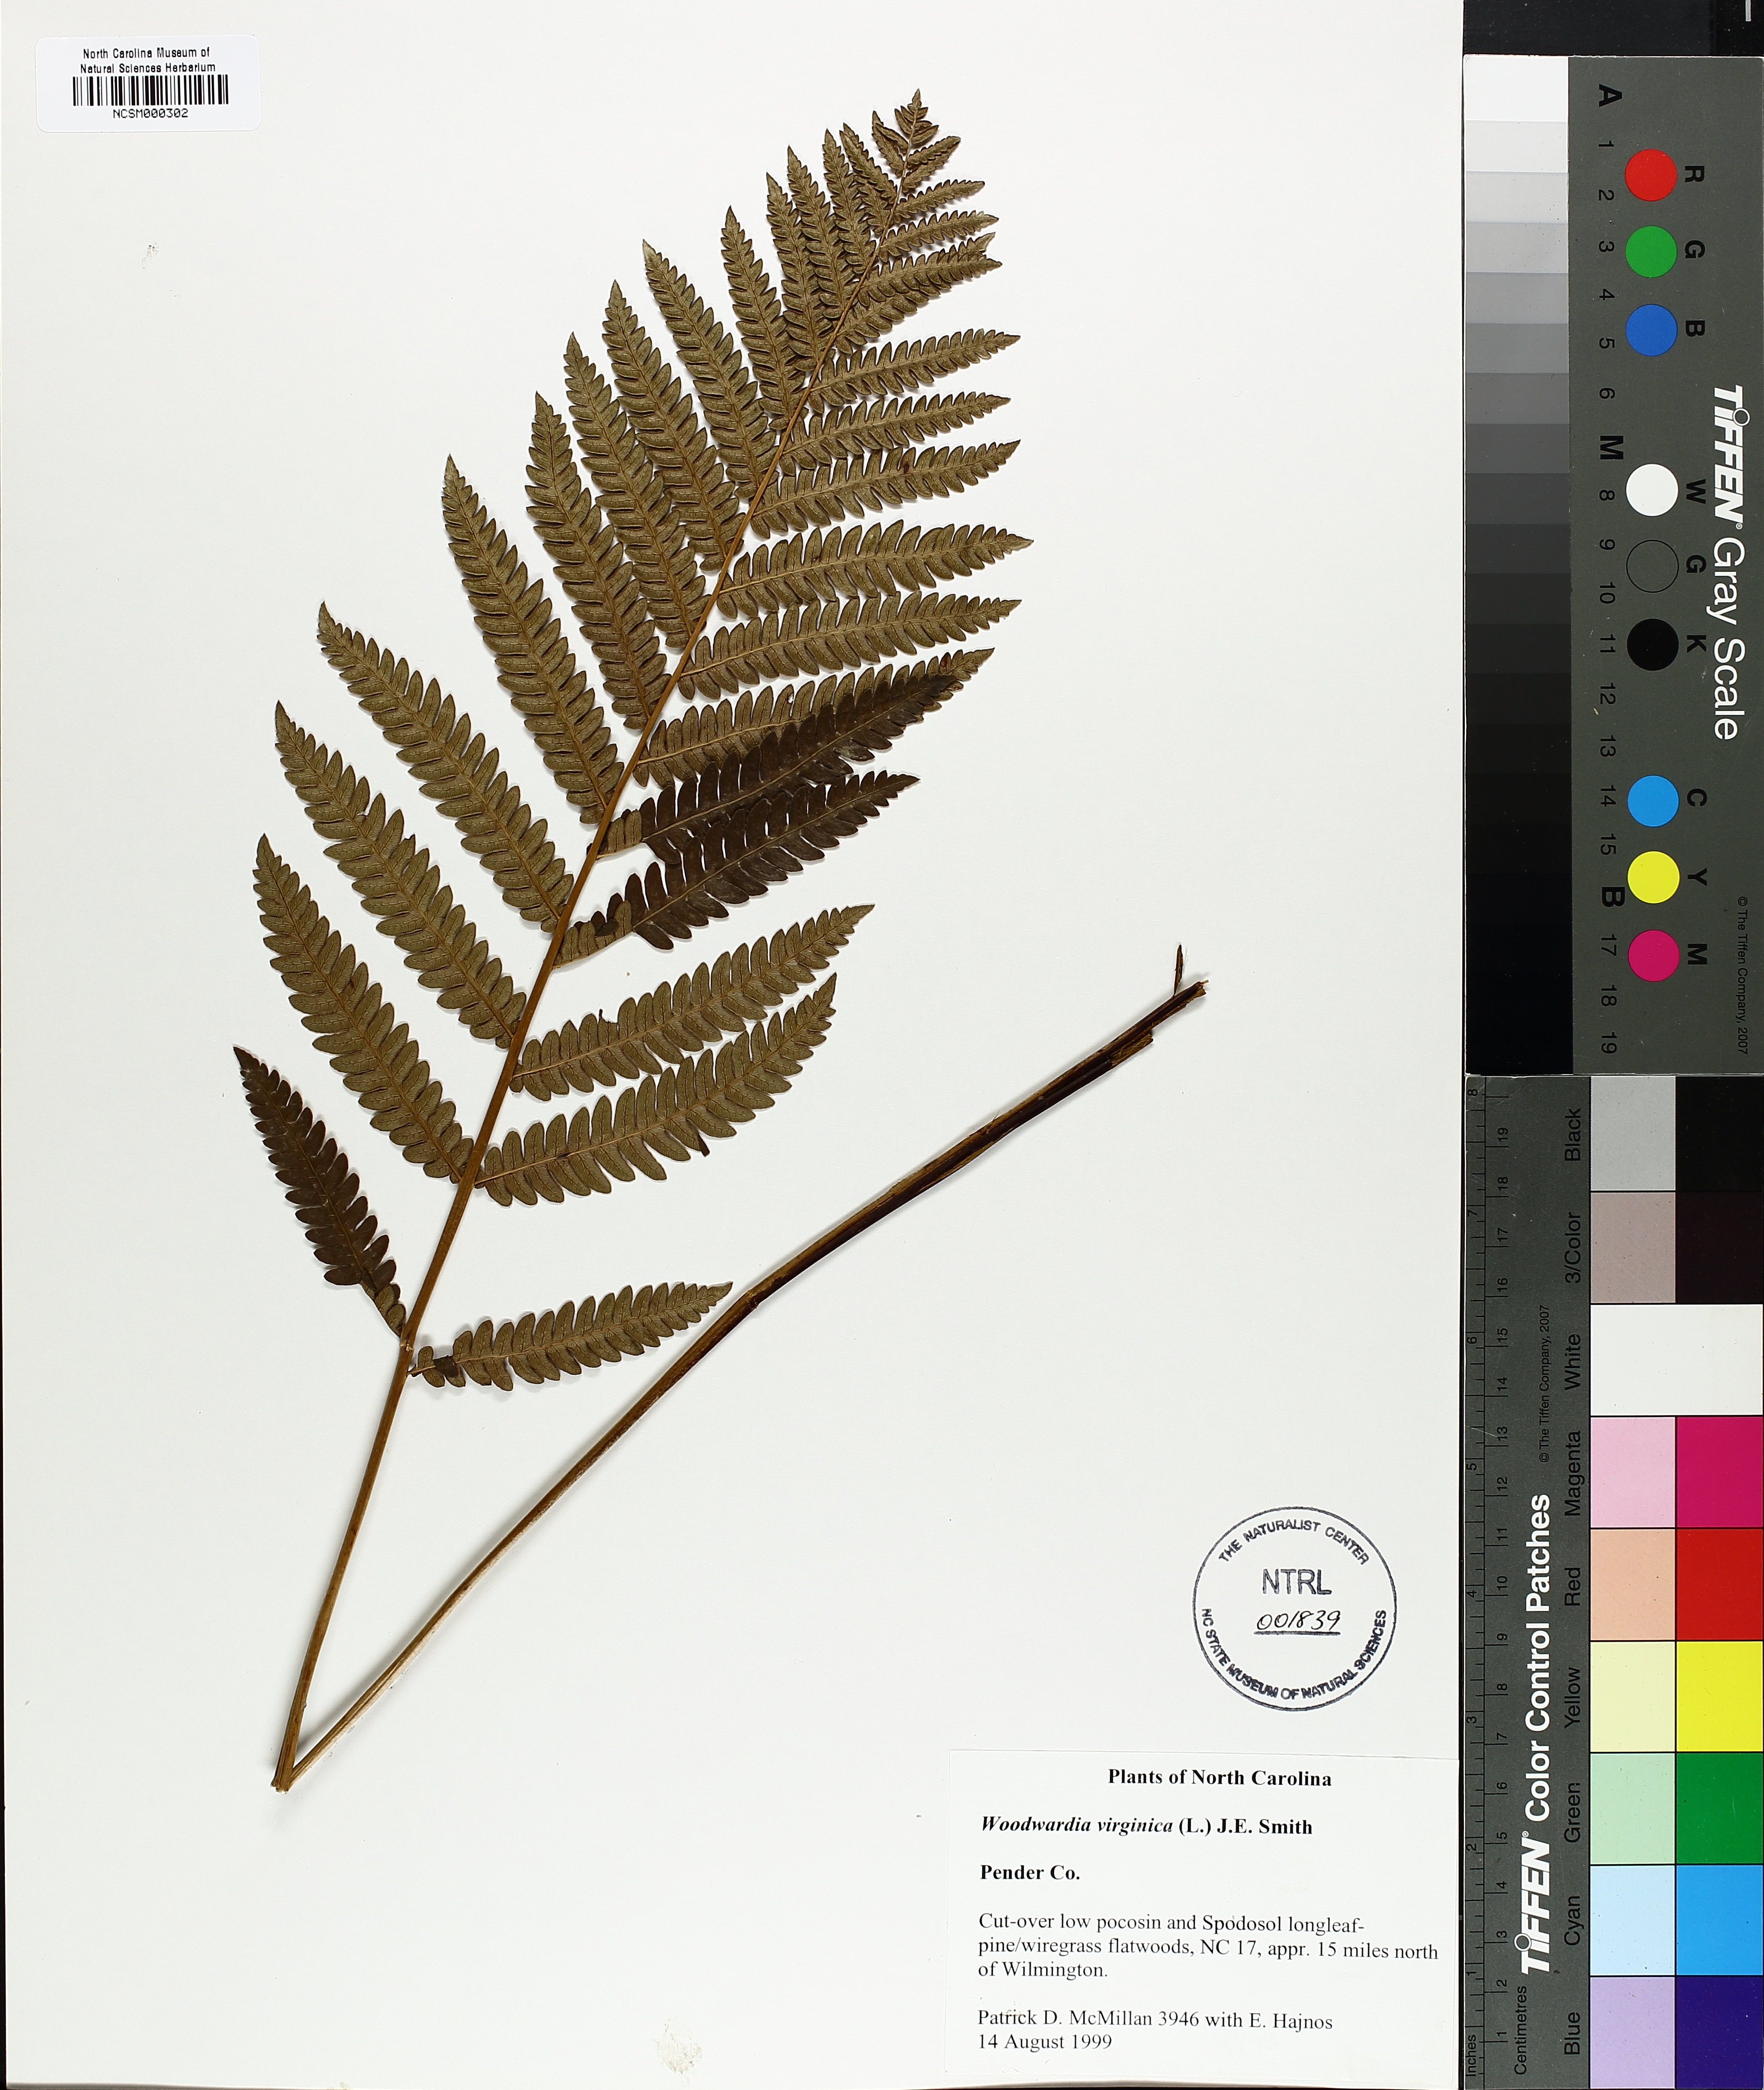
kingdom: Plantae
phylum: Tracheophyta
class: Polypodiopsida
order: Polypodiales
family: Blechnaceae
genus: Anchistea
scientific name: Anchistea virginica
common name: Virginia chain fern
